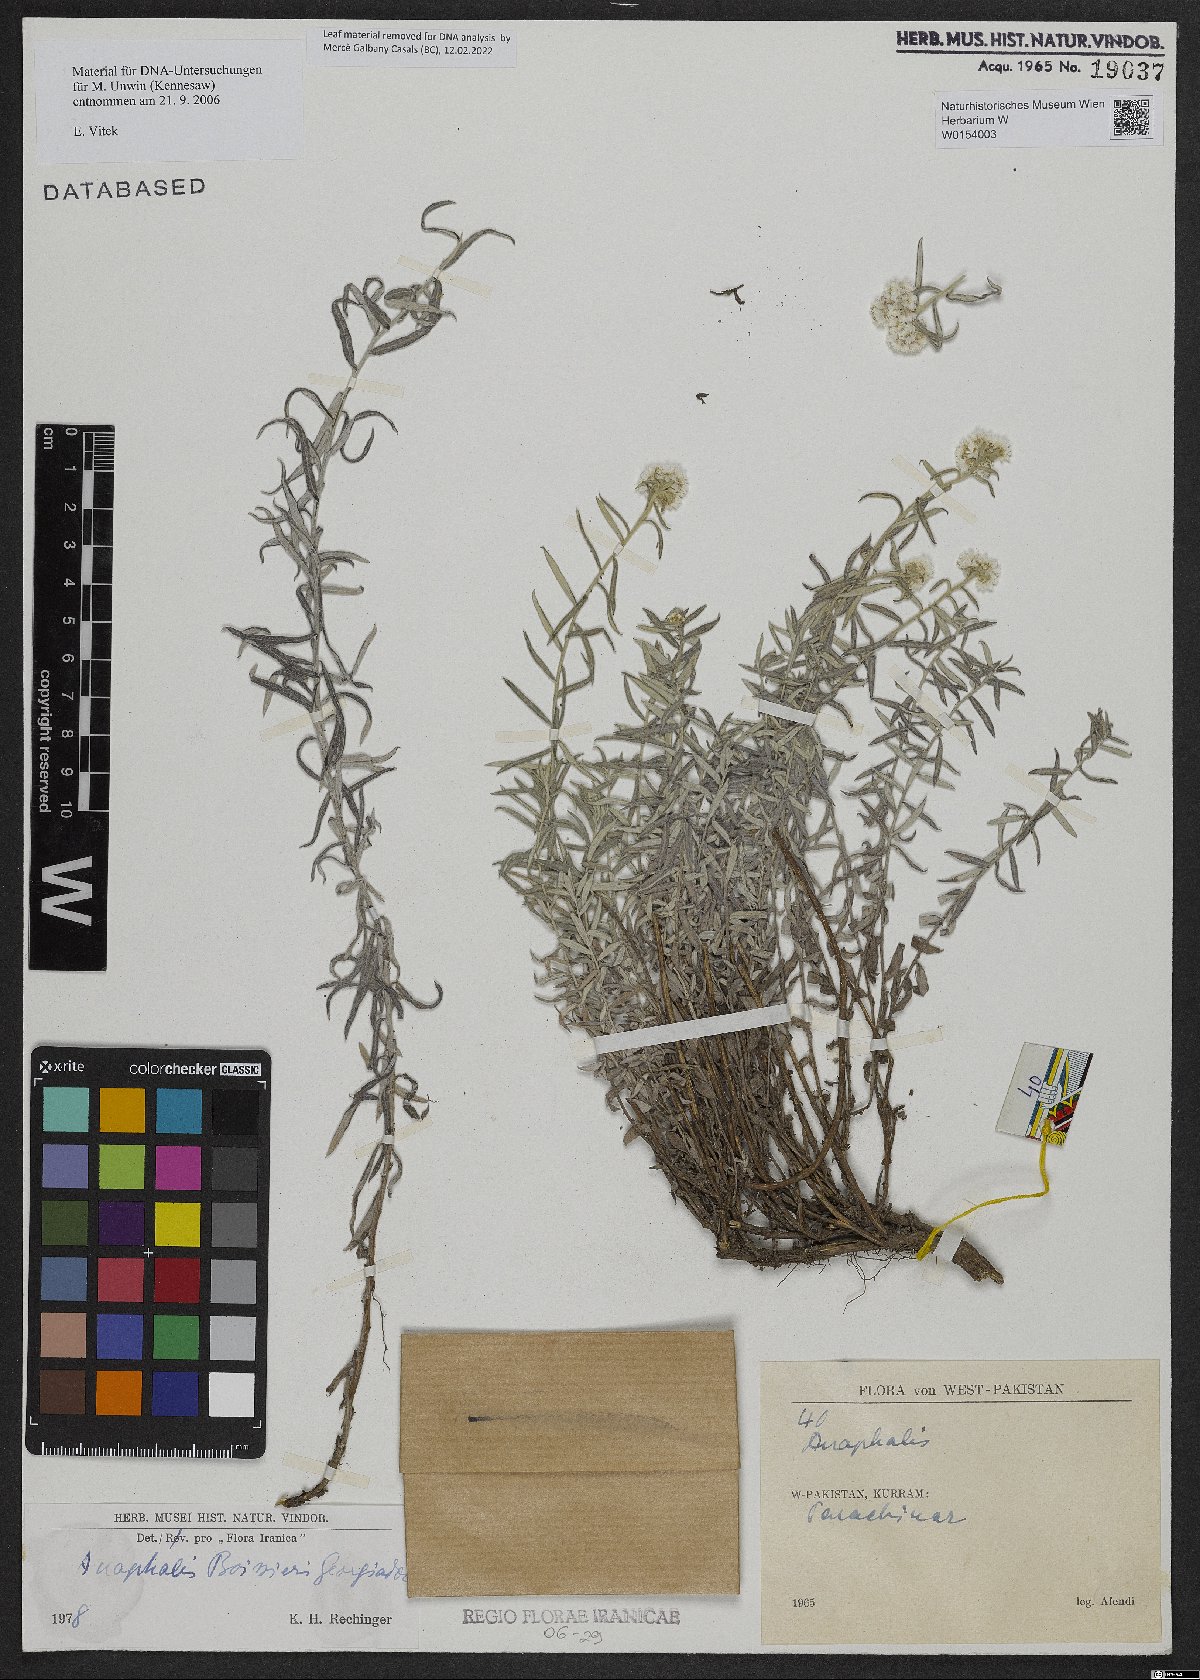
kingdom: Plantae
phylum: Tracheophyta
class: Magnoliopsida
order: Asterales
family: Asteraceae
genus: Anaphalis
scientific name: Anaphalis boissieri
